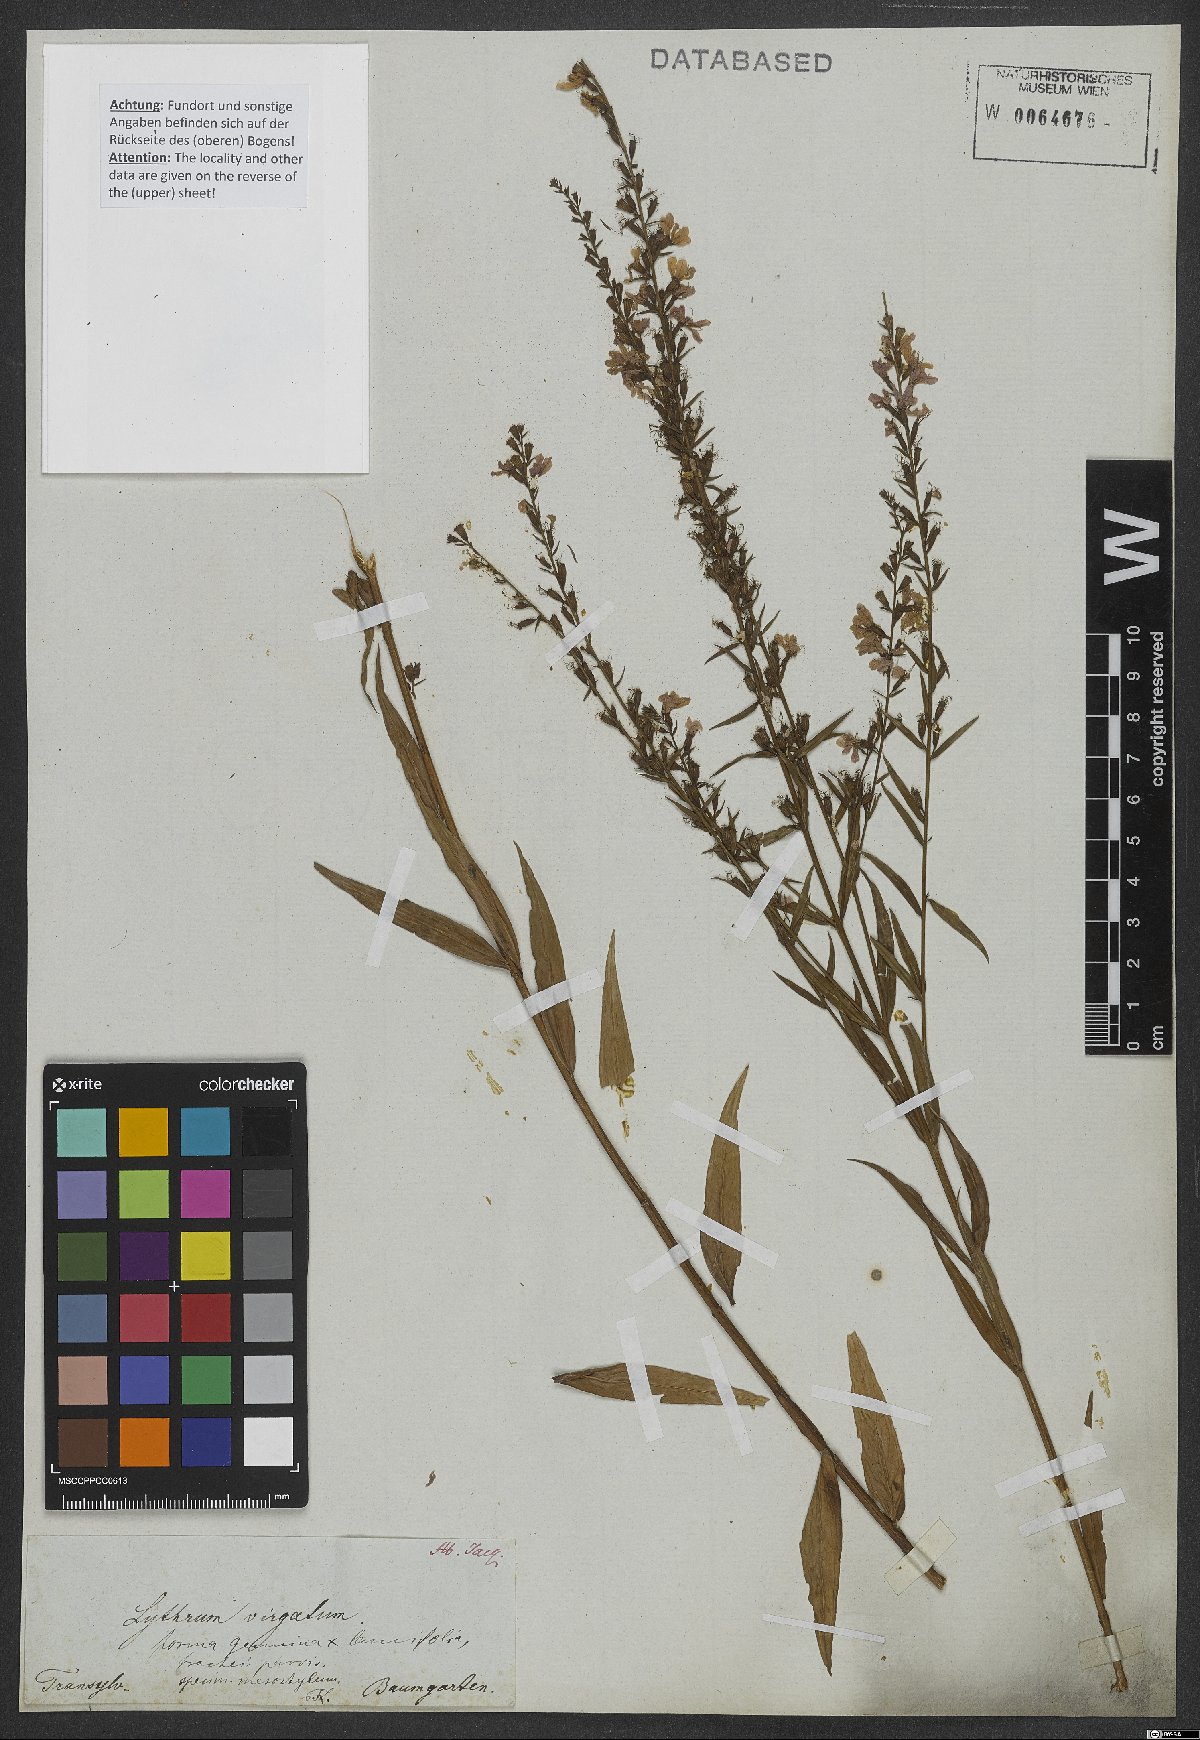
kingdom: Plantae
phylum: Tracheophyta
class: Magnoliopsida
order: Myrtales
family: Lythraceae
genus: Lythrum
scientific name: Lythrum virgatum
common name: European wand loosestrife
